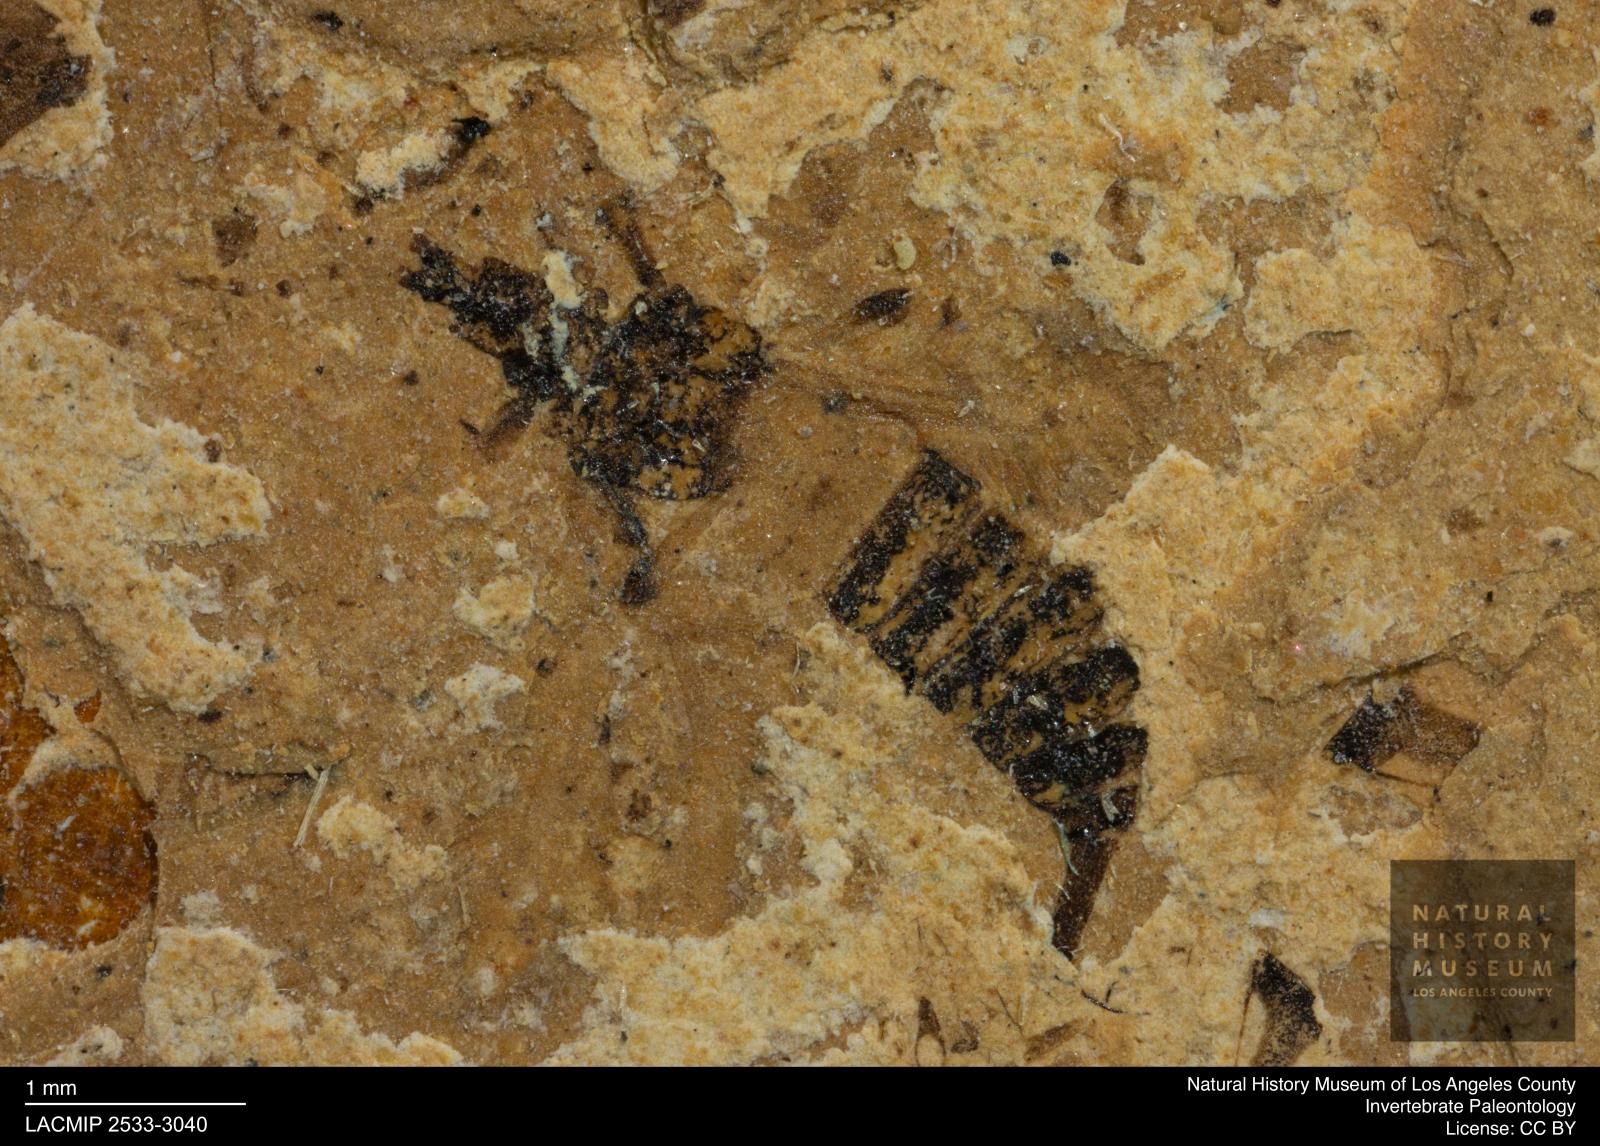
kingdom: Animalia
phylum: Arthropoda
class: Insecta
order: Thysanoptera
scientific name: Thysanoptera
